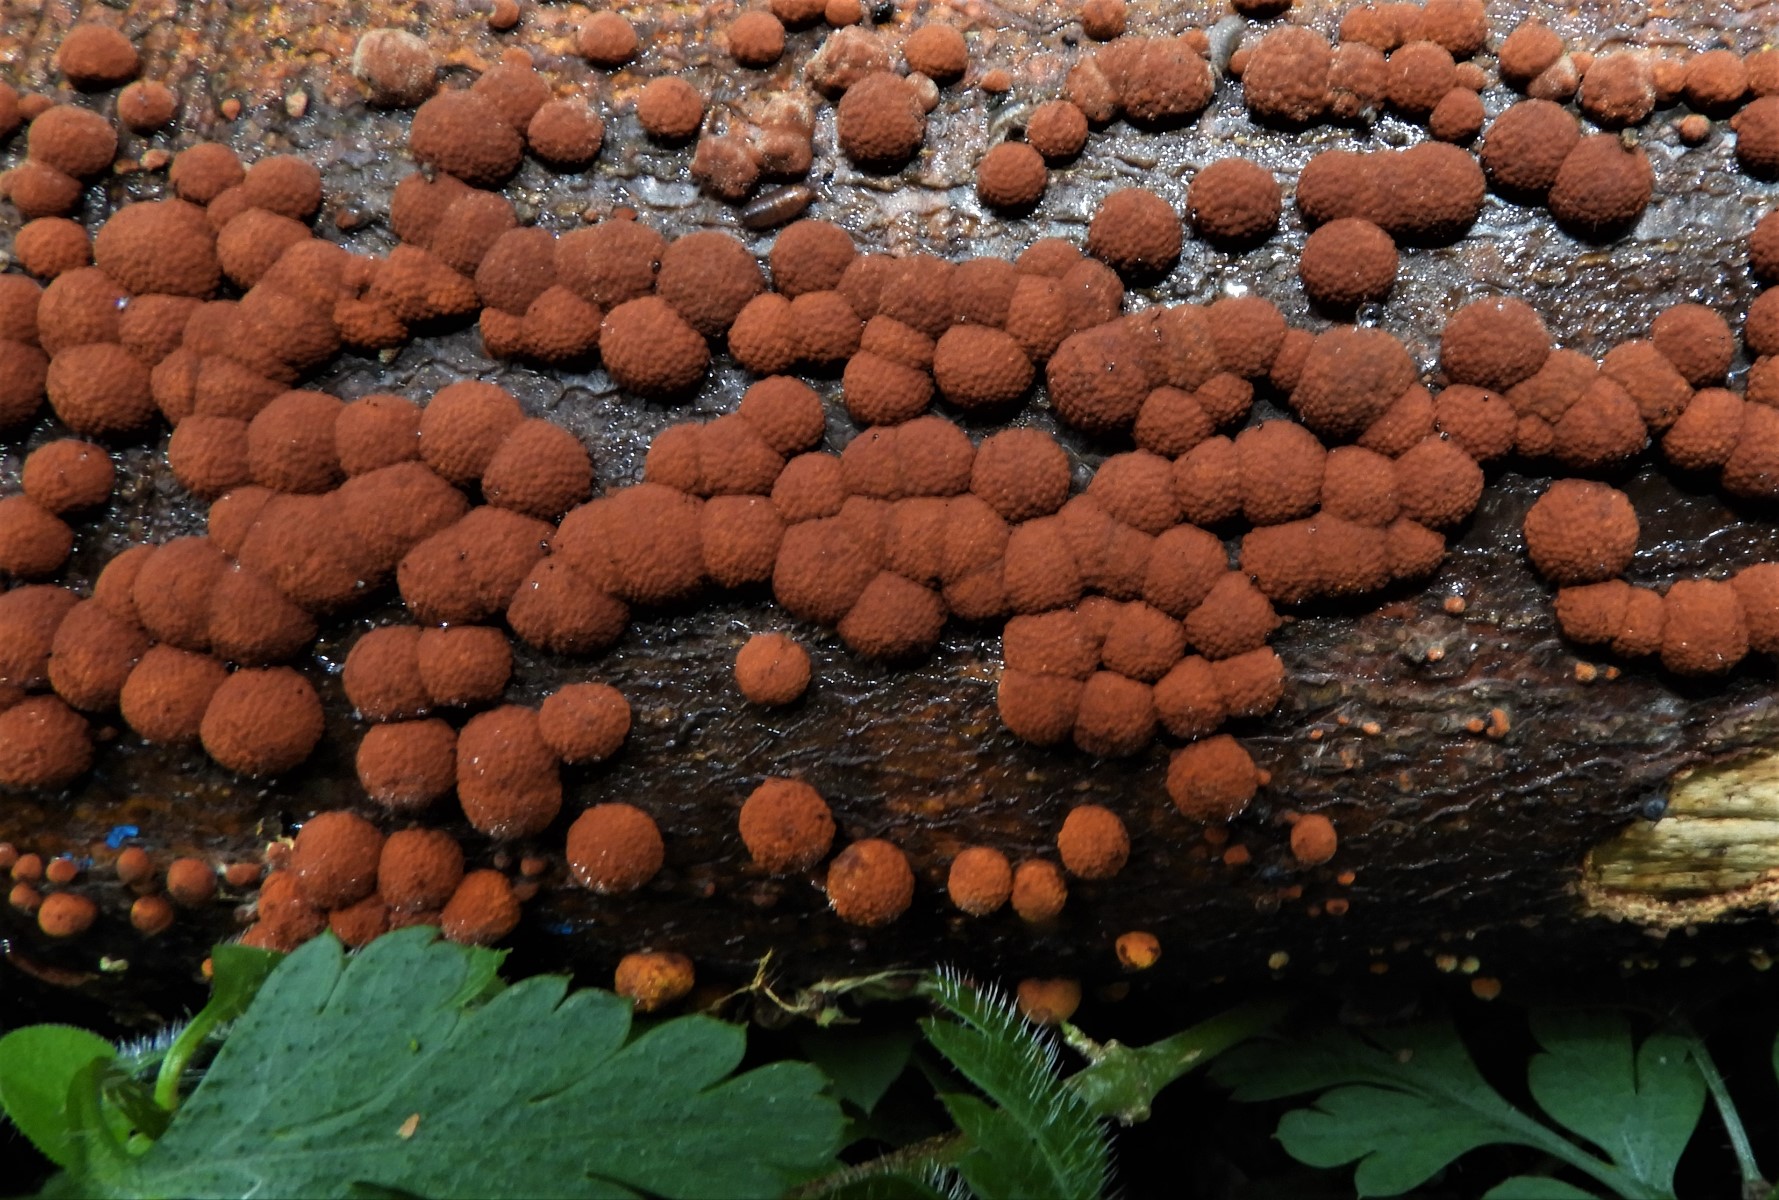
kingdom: Fungi
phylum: Ascomycota
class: Sordariomycetes
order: Xylariales
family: Hypoxylaceae
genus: Hypoxylon
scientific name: Hypoxylon fragiforme
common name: kuljordbær
